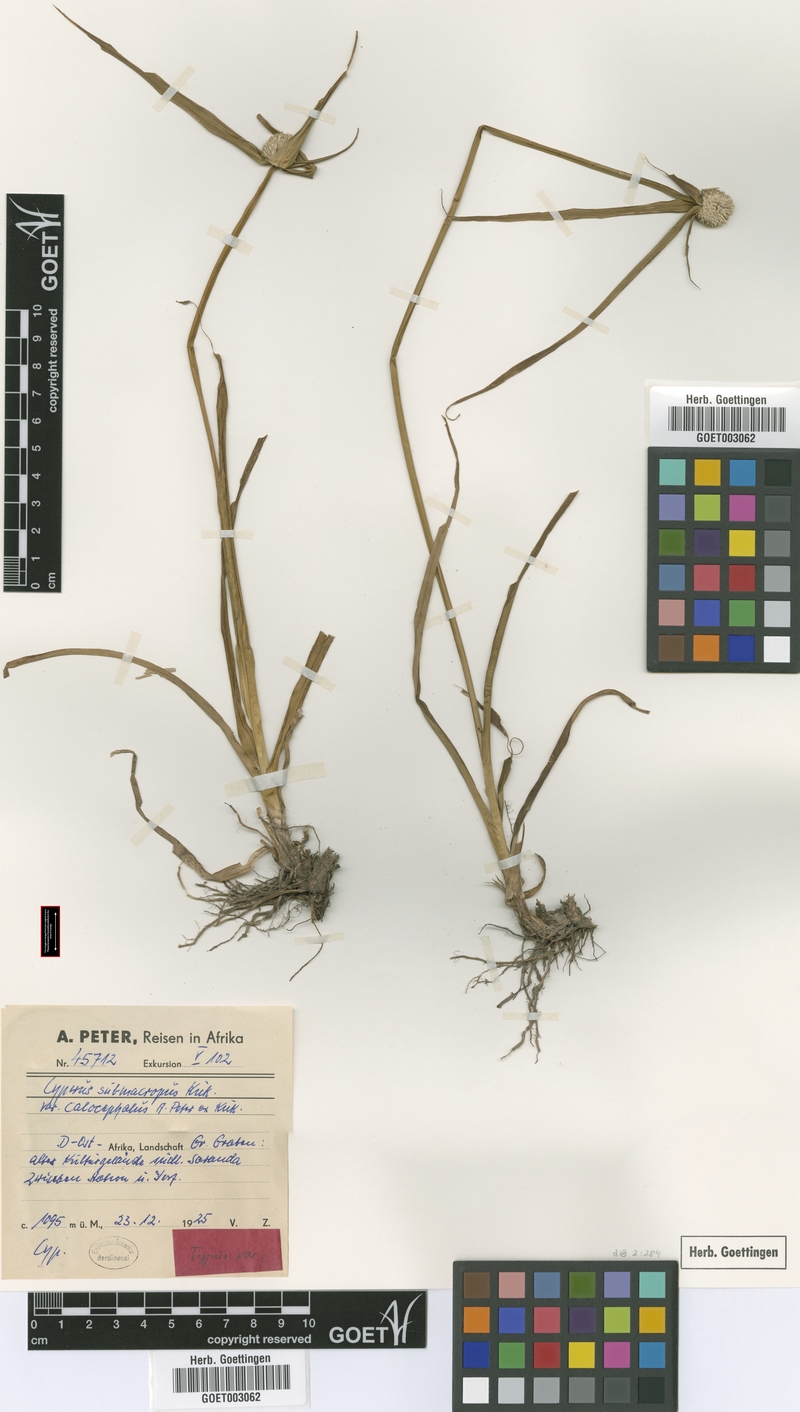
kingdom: Plantae
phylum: Tracheophyta
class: Liliopsida
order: Poales
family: Cyperaceae
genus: Cyperus
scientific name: Cyperus mollipes
